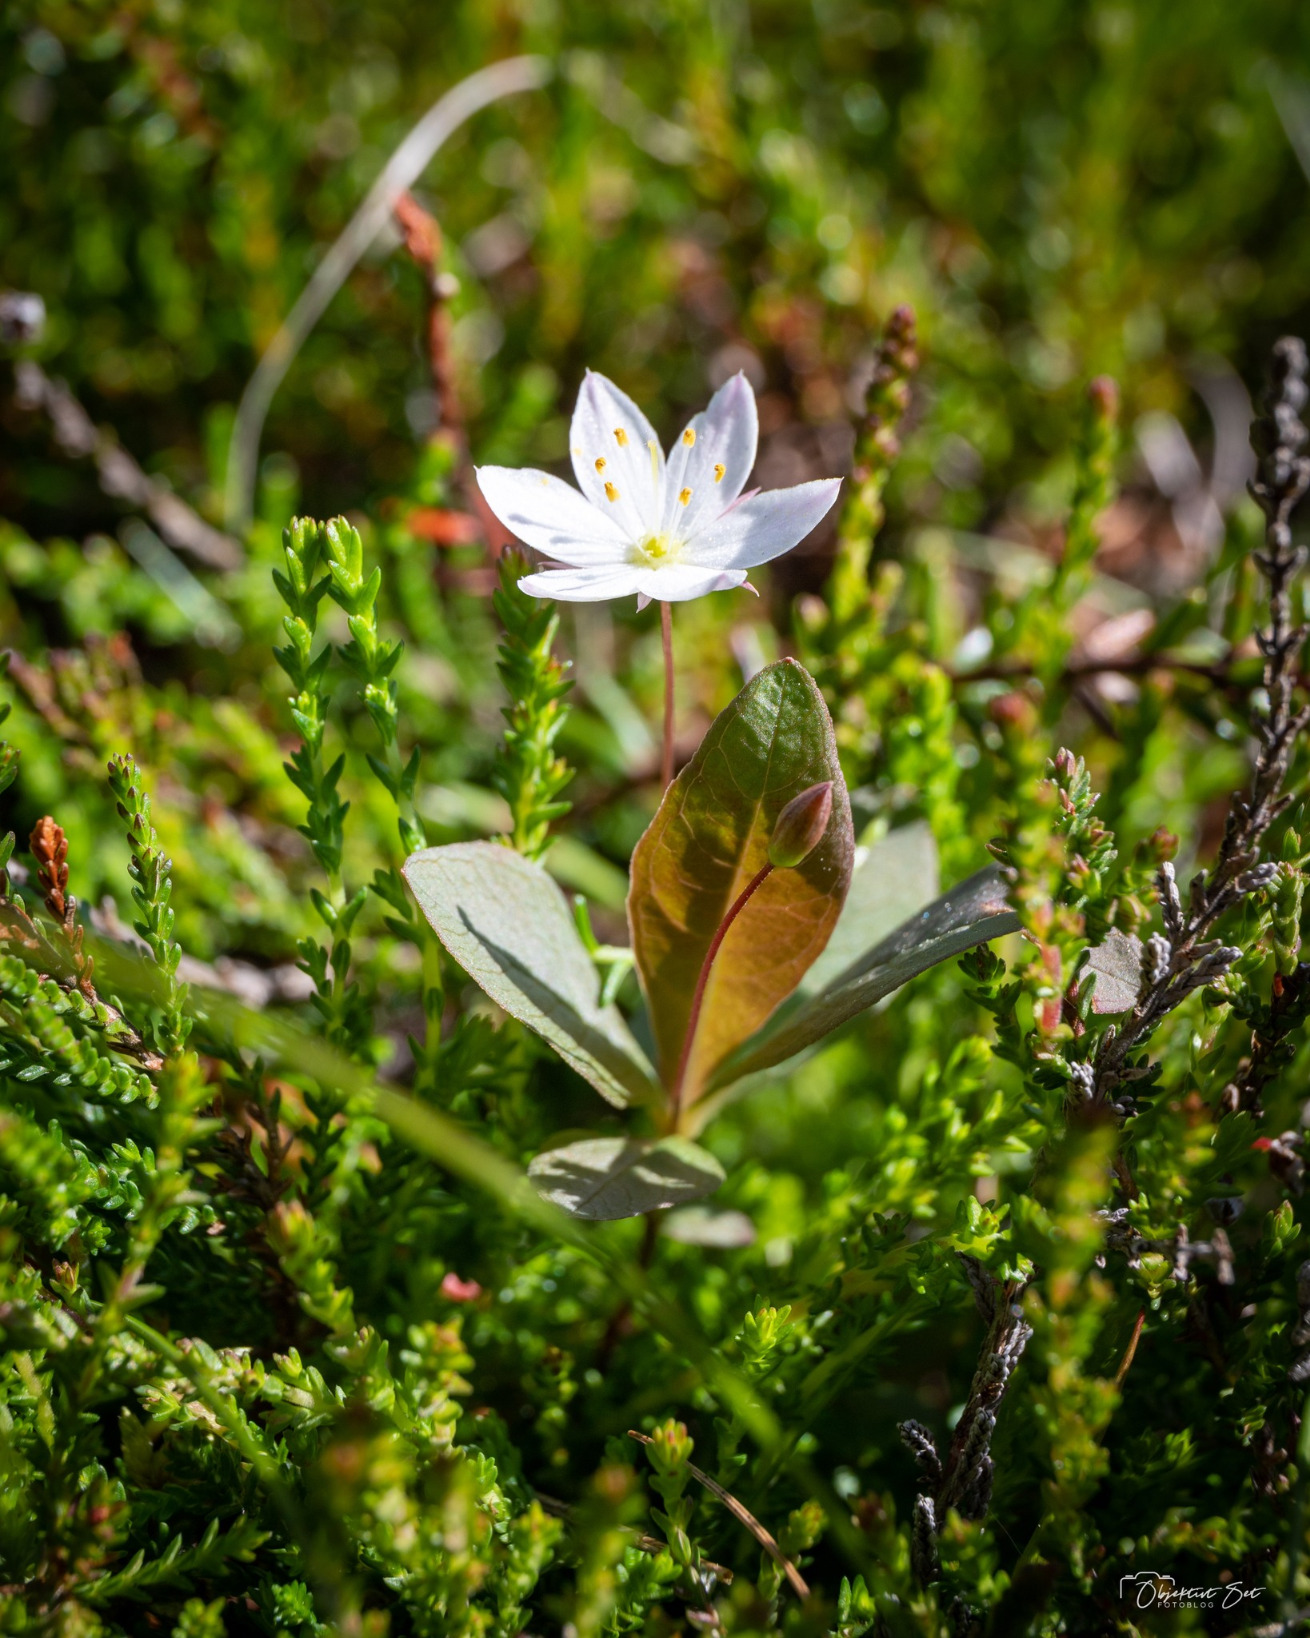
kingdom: Plantae
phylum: Tracheophyta
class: Magnoliopsida
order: Ericales
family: Primulaceae
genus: Lysimachia
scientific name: Lysimachia europaea
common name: Skovstjerne
